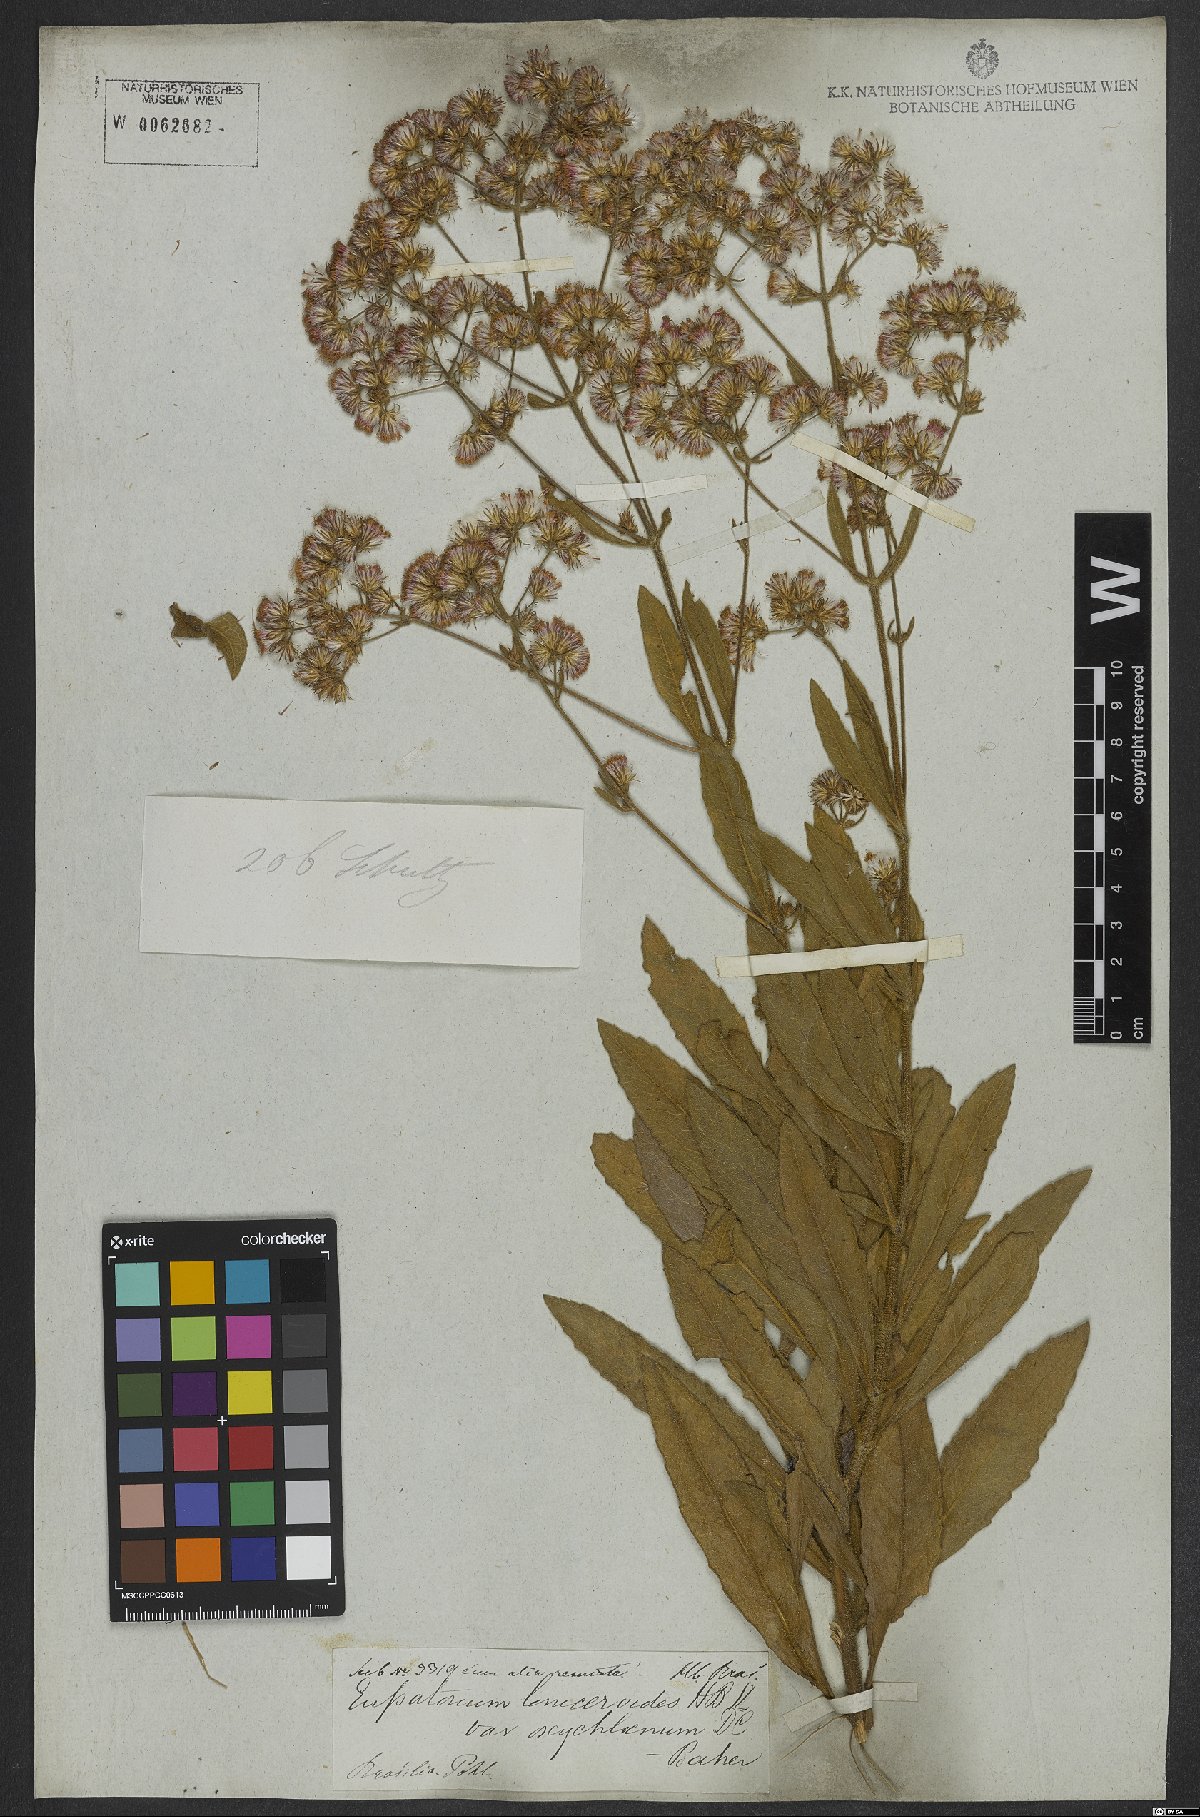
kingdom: Plantae
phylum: Tracheophyta
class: Magnoliopsida
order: Asterales
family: Asteraceae
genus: Ayapana
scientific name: Ayapana amygdalina
